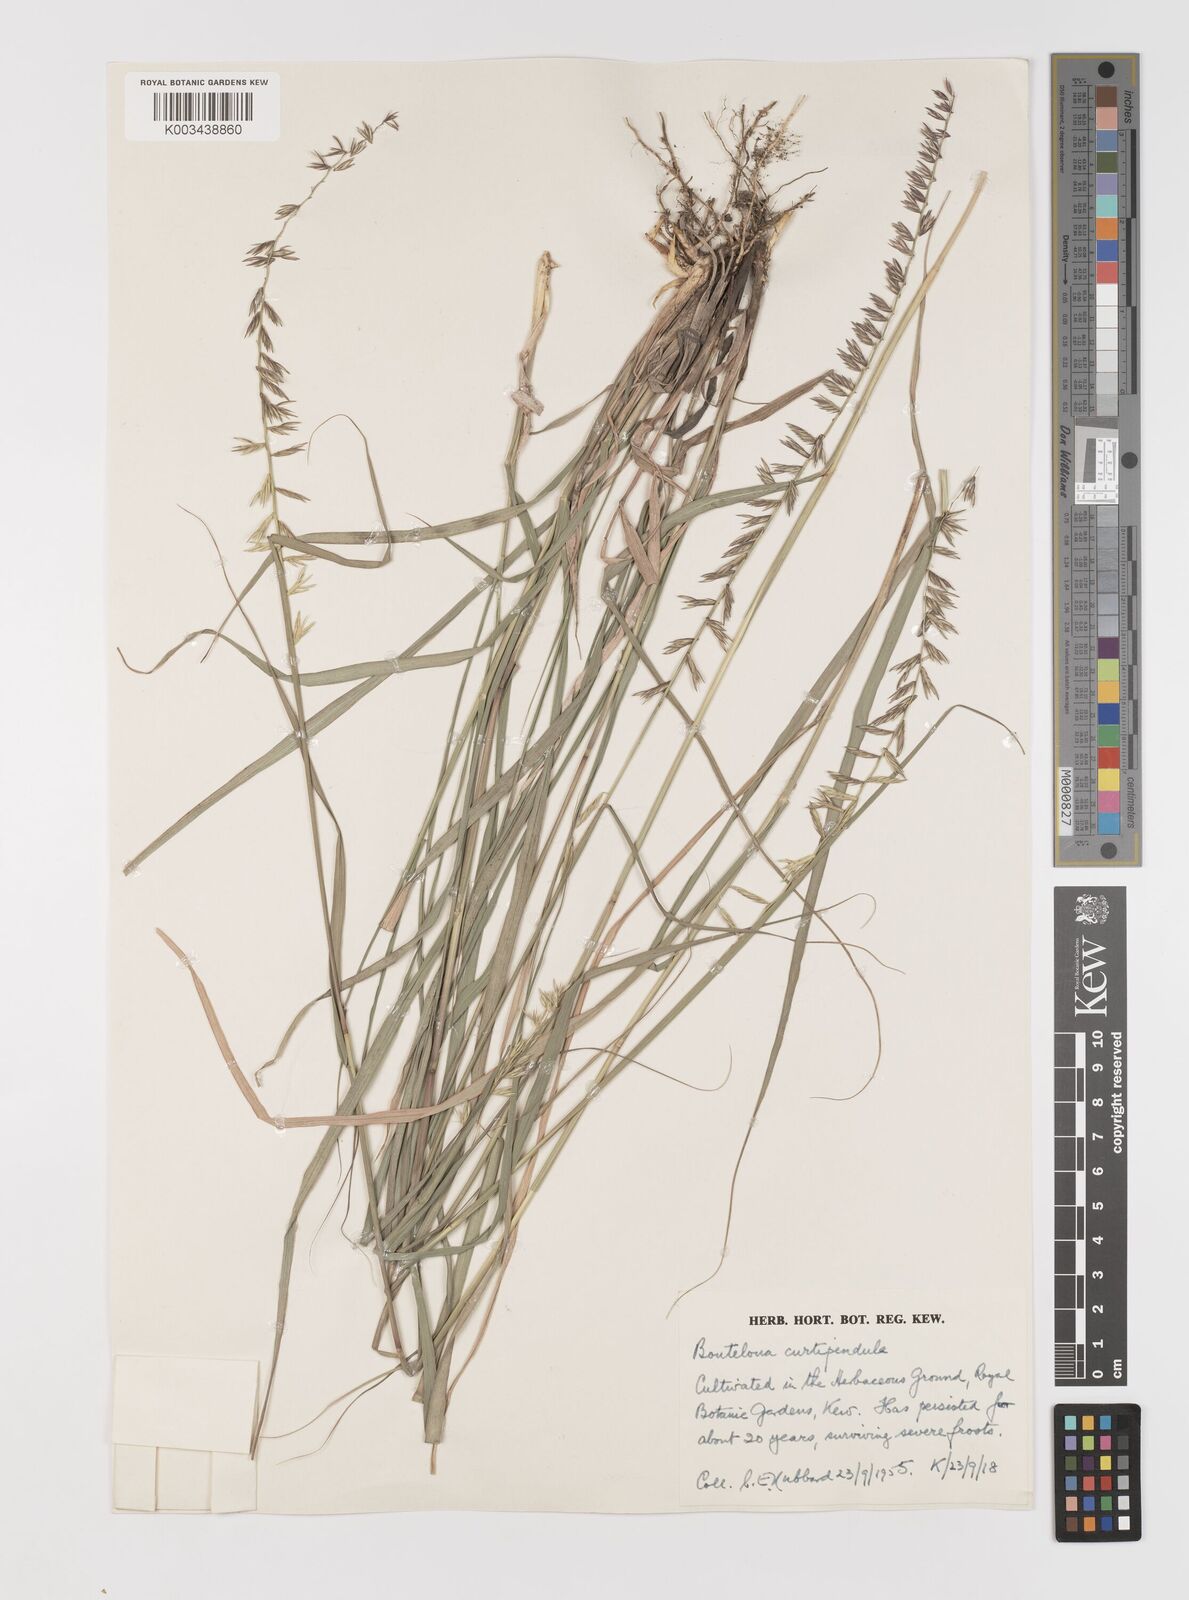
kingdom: Plantae
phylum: Tracheophyta
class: Liliopsida
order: Poales
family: Poaceae
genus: Bouteloua
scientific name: Bouteloua curtipendula
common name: Side-oats grama
